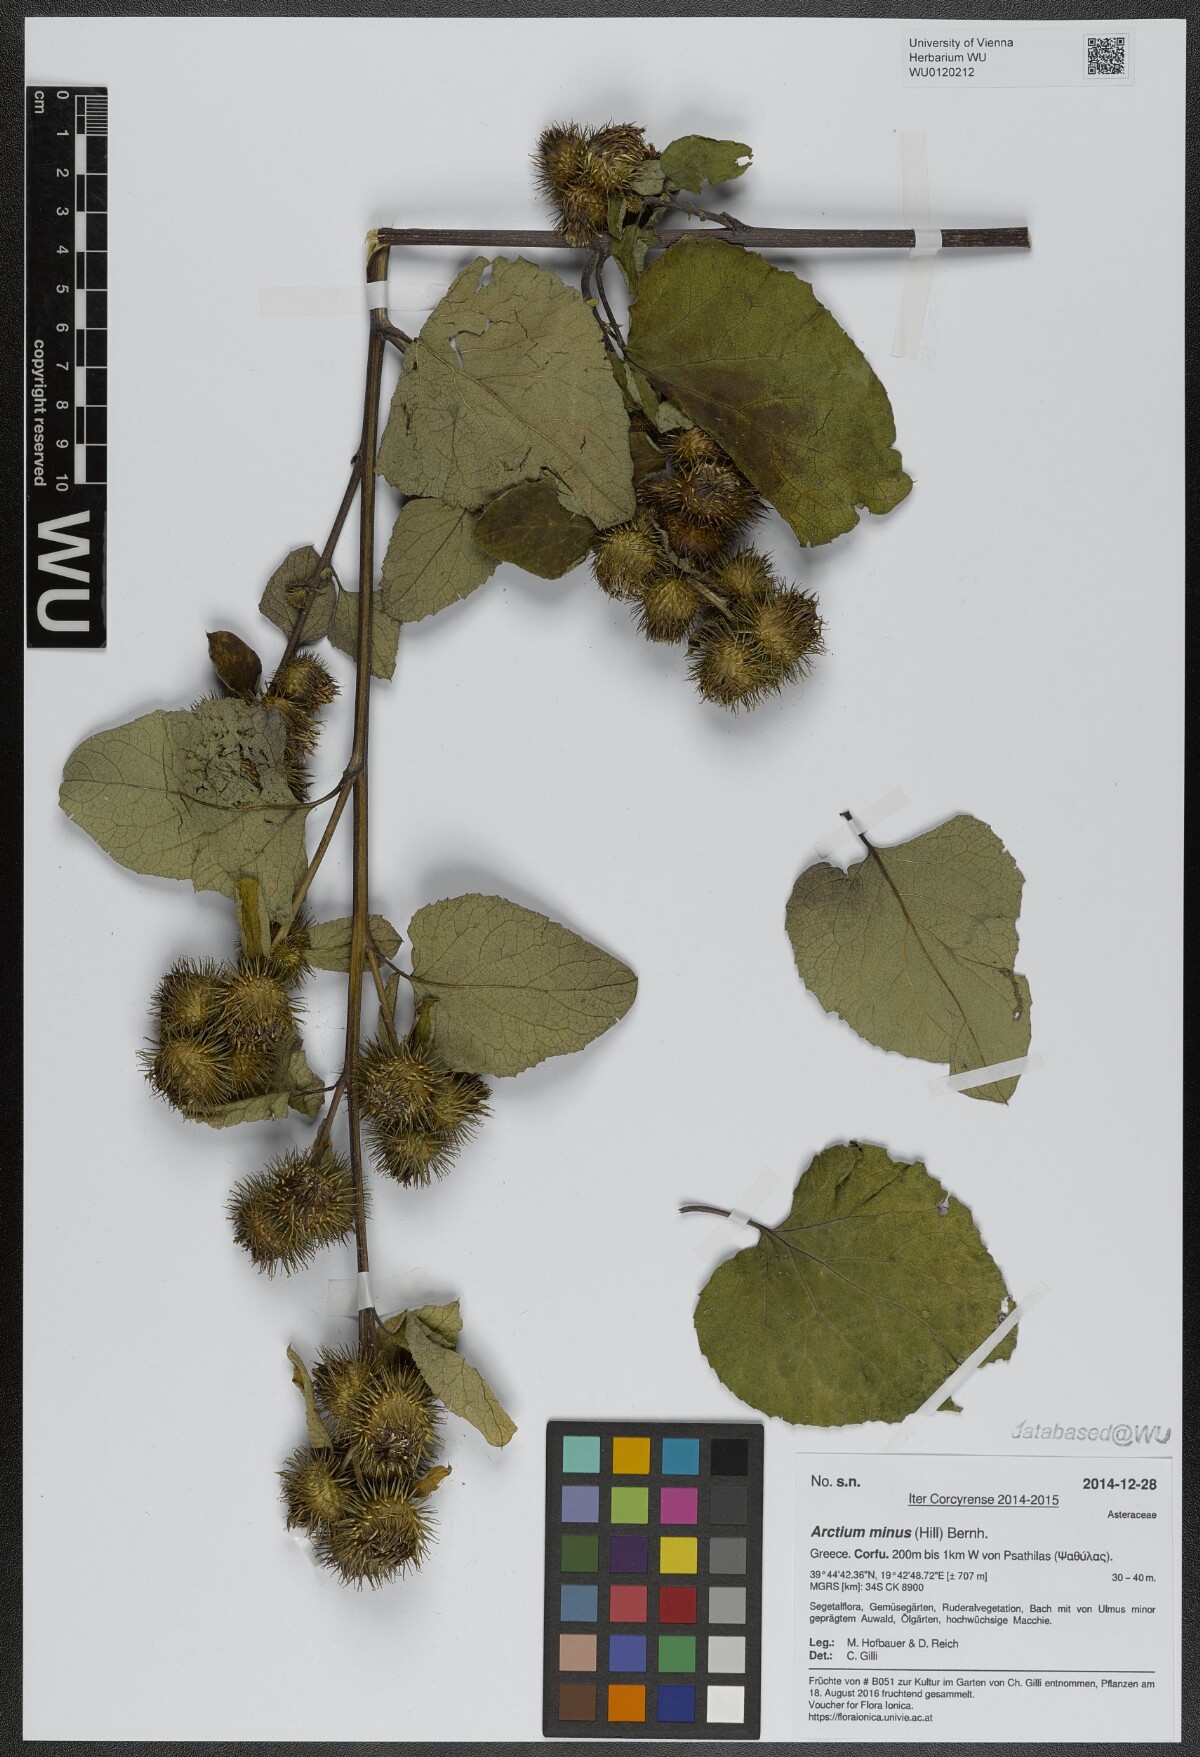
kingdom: Plantae
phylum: Tracheophyta
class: Magnoliopsida
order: Asterales
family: Asteraceae
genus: Arctium
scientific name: Arctium minus
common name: Lesser burdock
